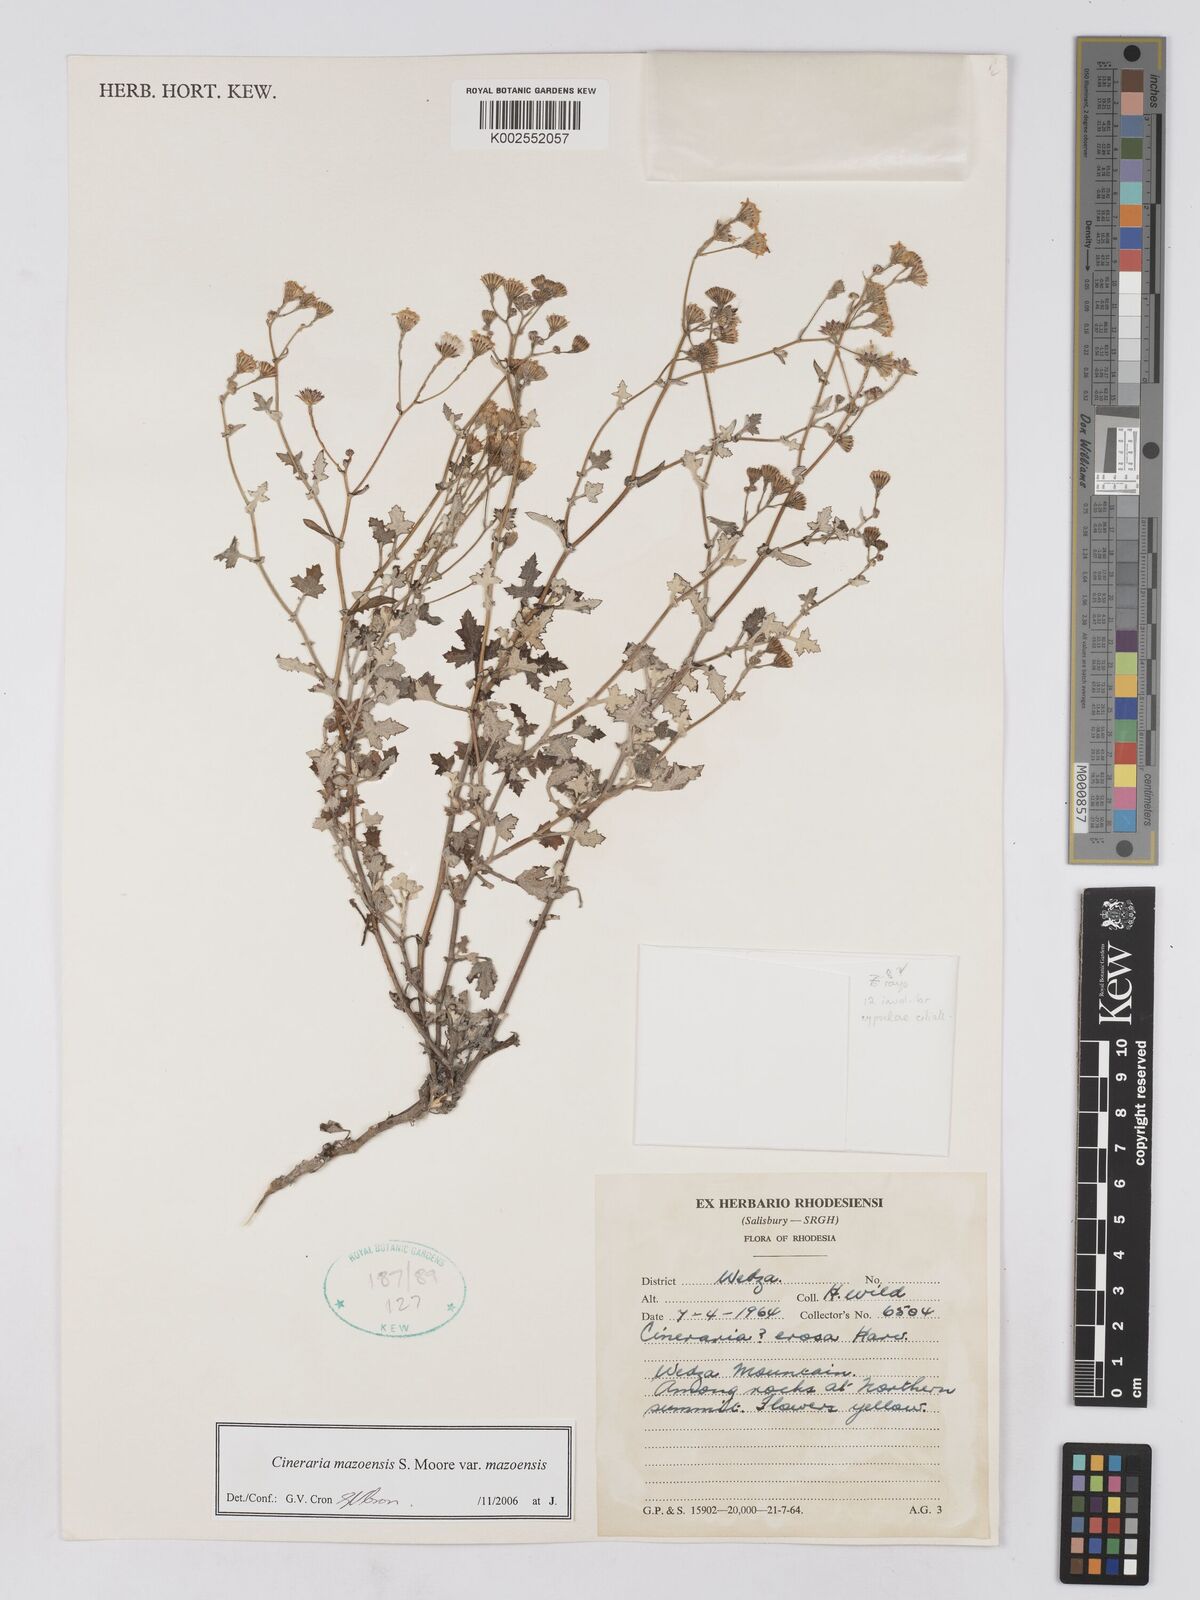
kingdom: Plantae
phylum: Tracheophyta
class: Magnoliopsida
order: Asterales
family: Asteraceae
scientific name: Asteraceae
